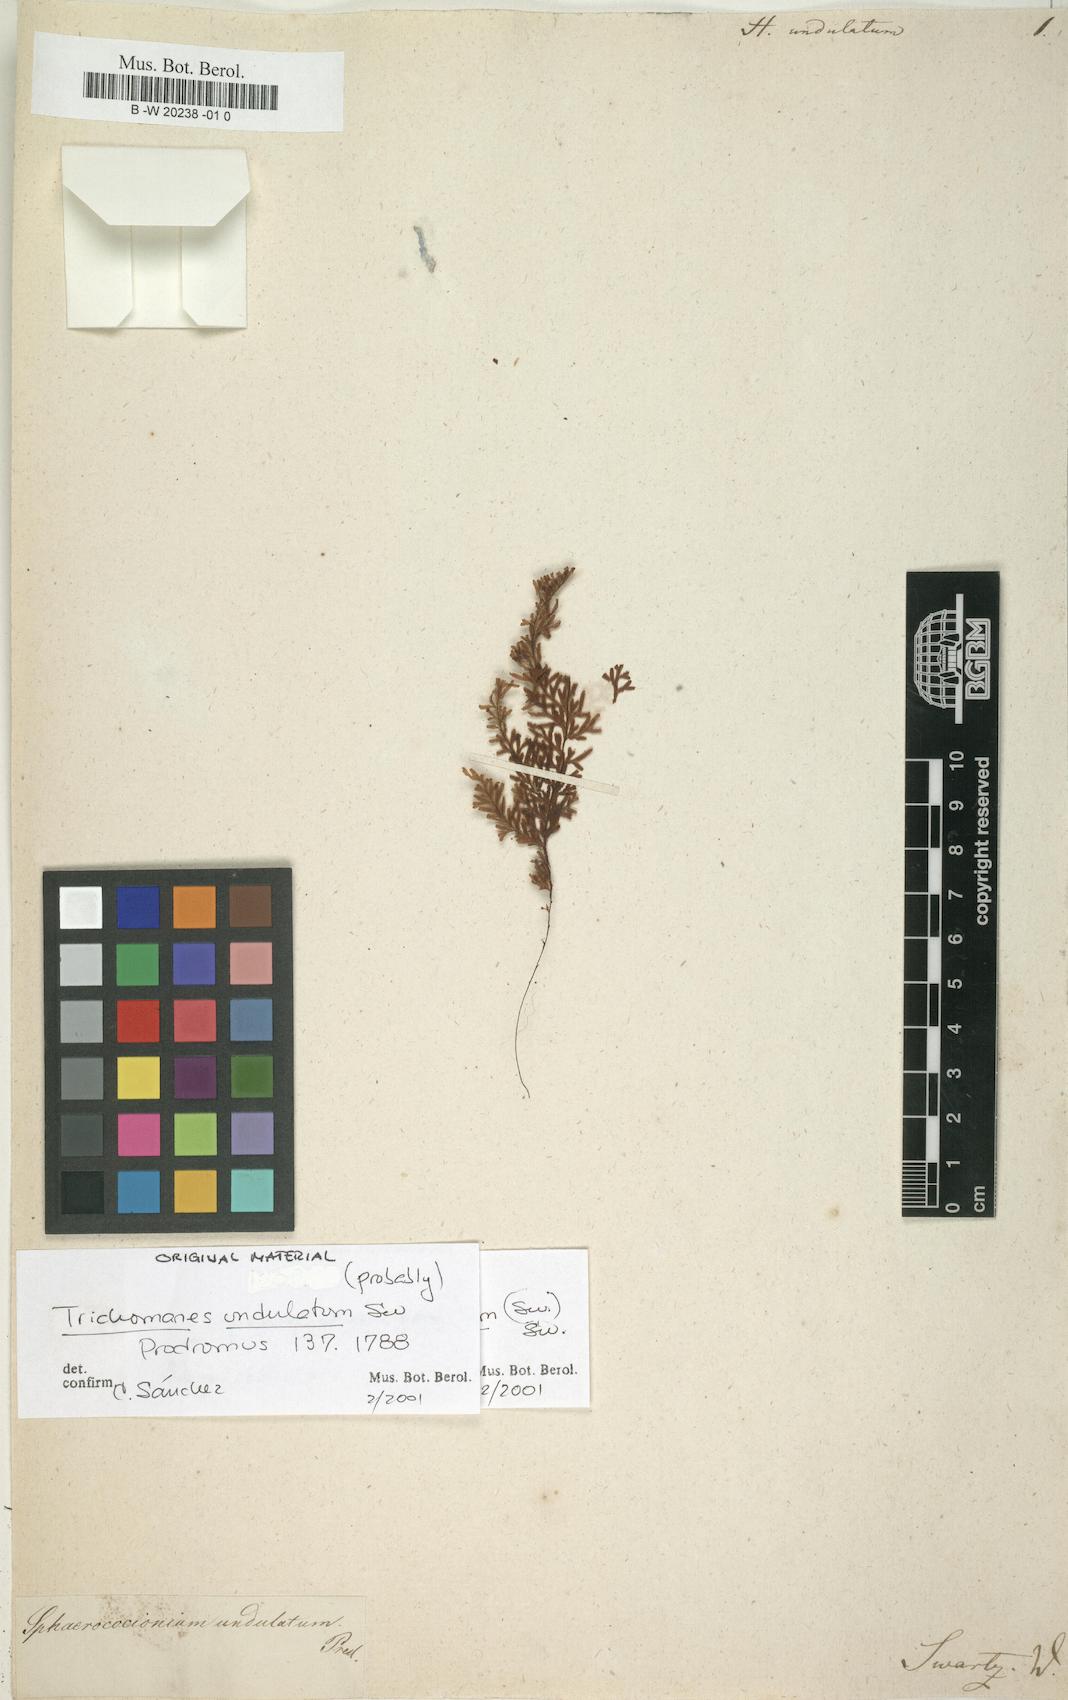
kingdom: Plantae
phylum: Tracheophyta
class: Polypodiopsida
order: Hymenophyllales
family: Hymenophyllaceae
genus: Hymenophyllum
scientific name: Hymenophyllum undulatum
